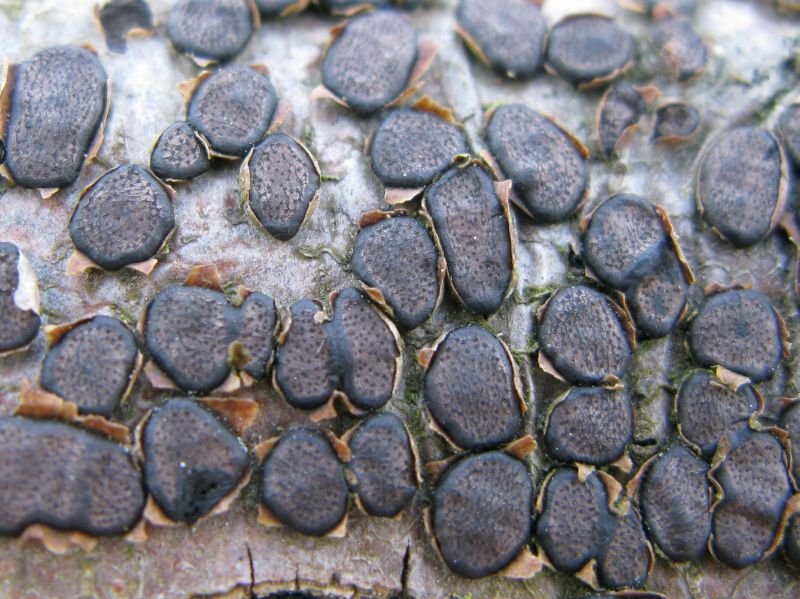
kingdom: Fungi
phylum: Ascomycota
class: Sordariomycetes
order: Xylariales
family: Diatrypaceae
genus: Diatrype
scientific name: Diatrype disciformis
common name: kant-kulskorpe
